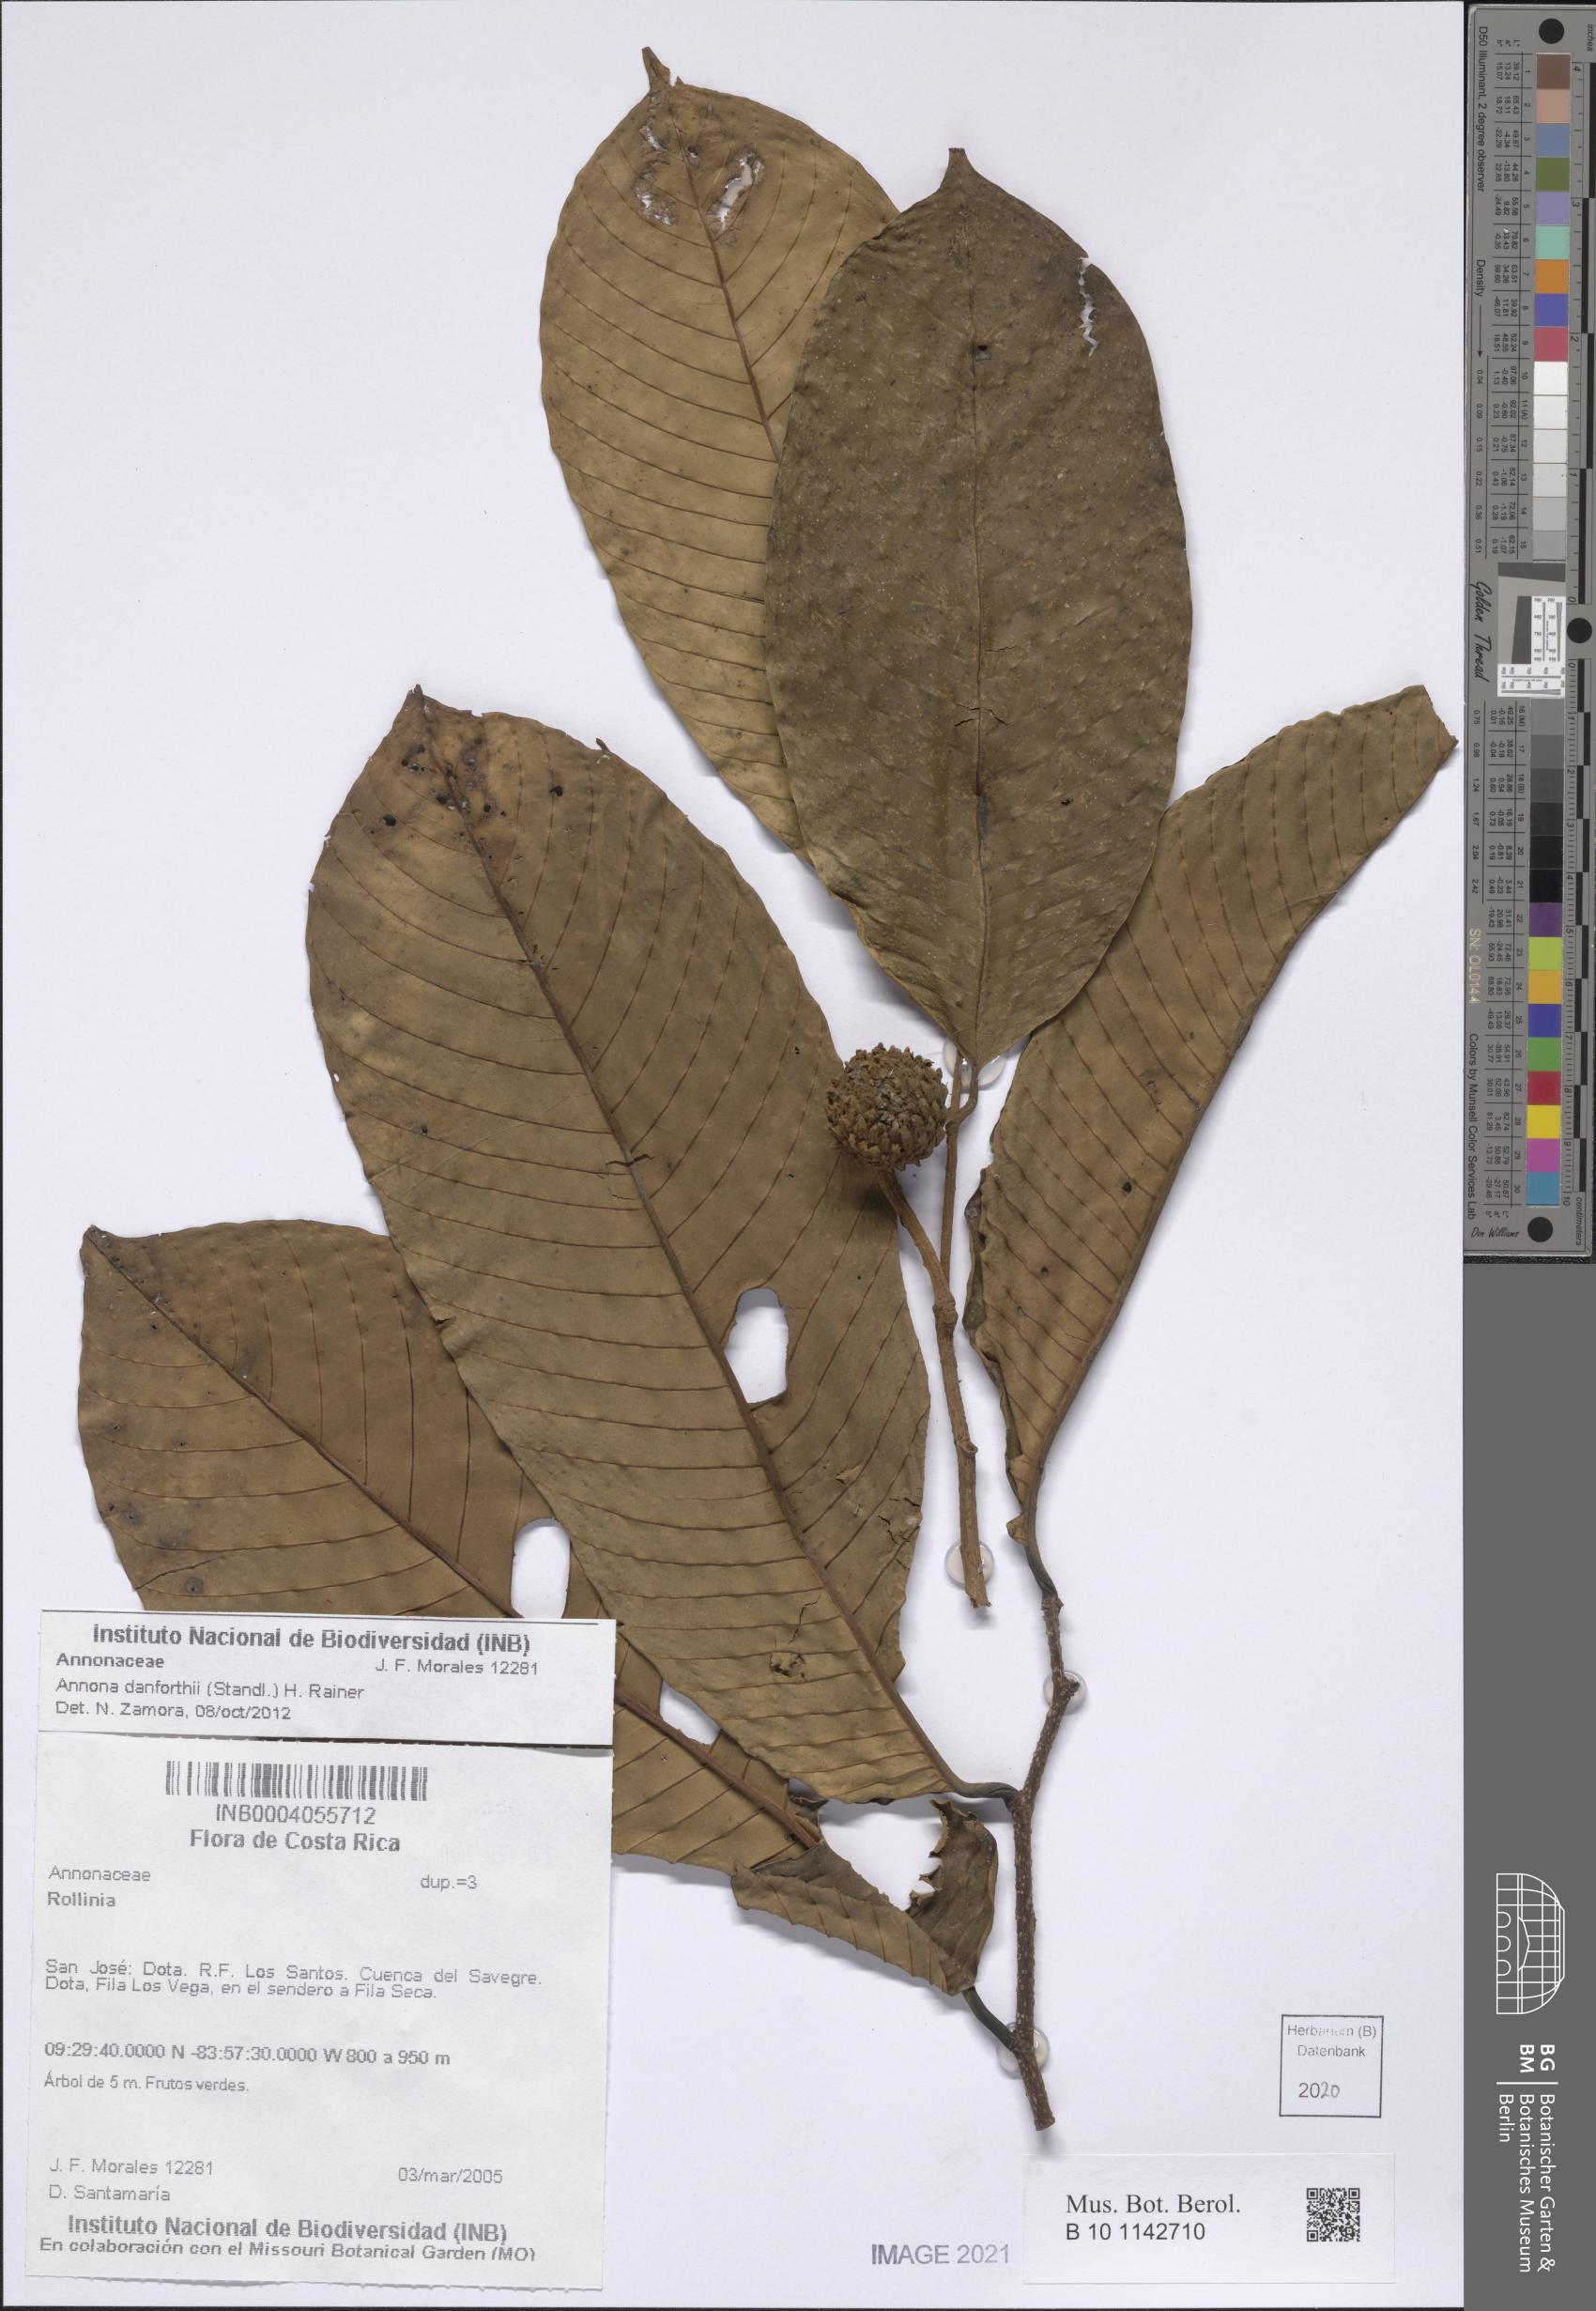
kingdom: Plantae
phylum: Tracheophyta
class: Magnoliopsida
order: Magnoliales
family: Annonaceae
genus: Annona
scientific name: Annona danforthii
